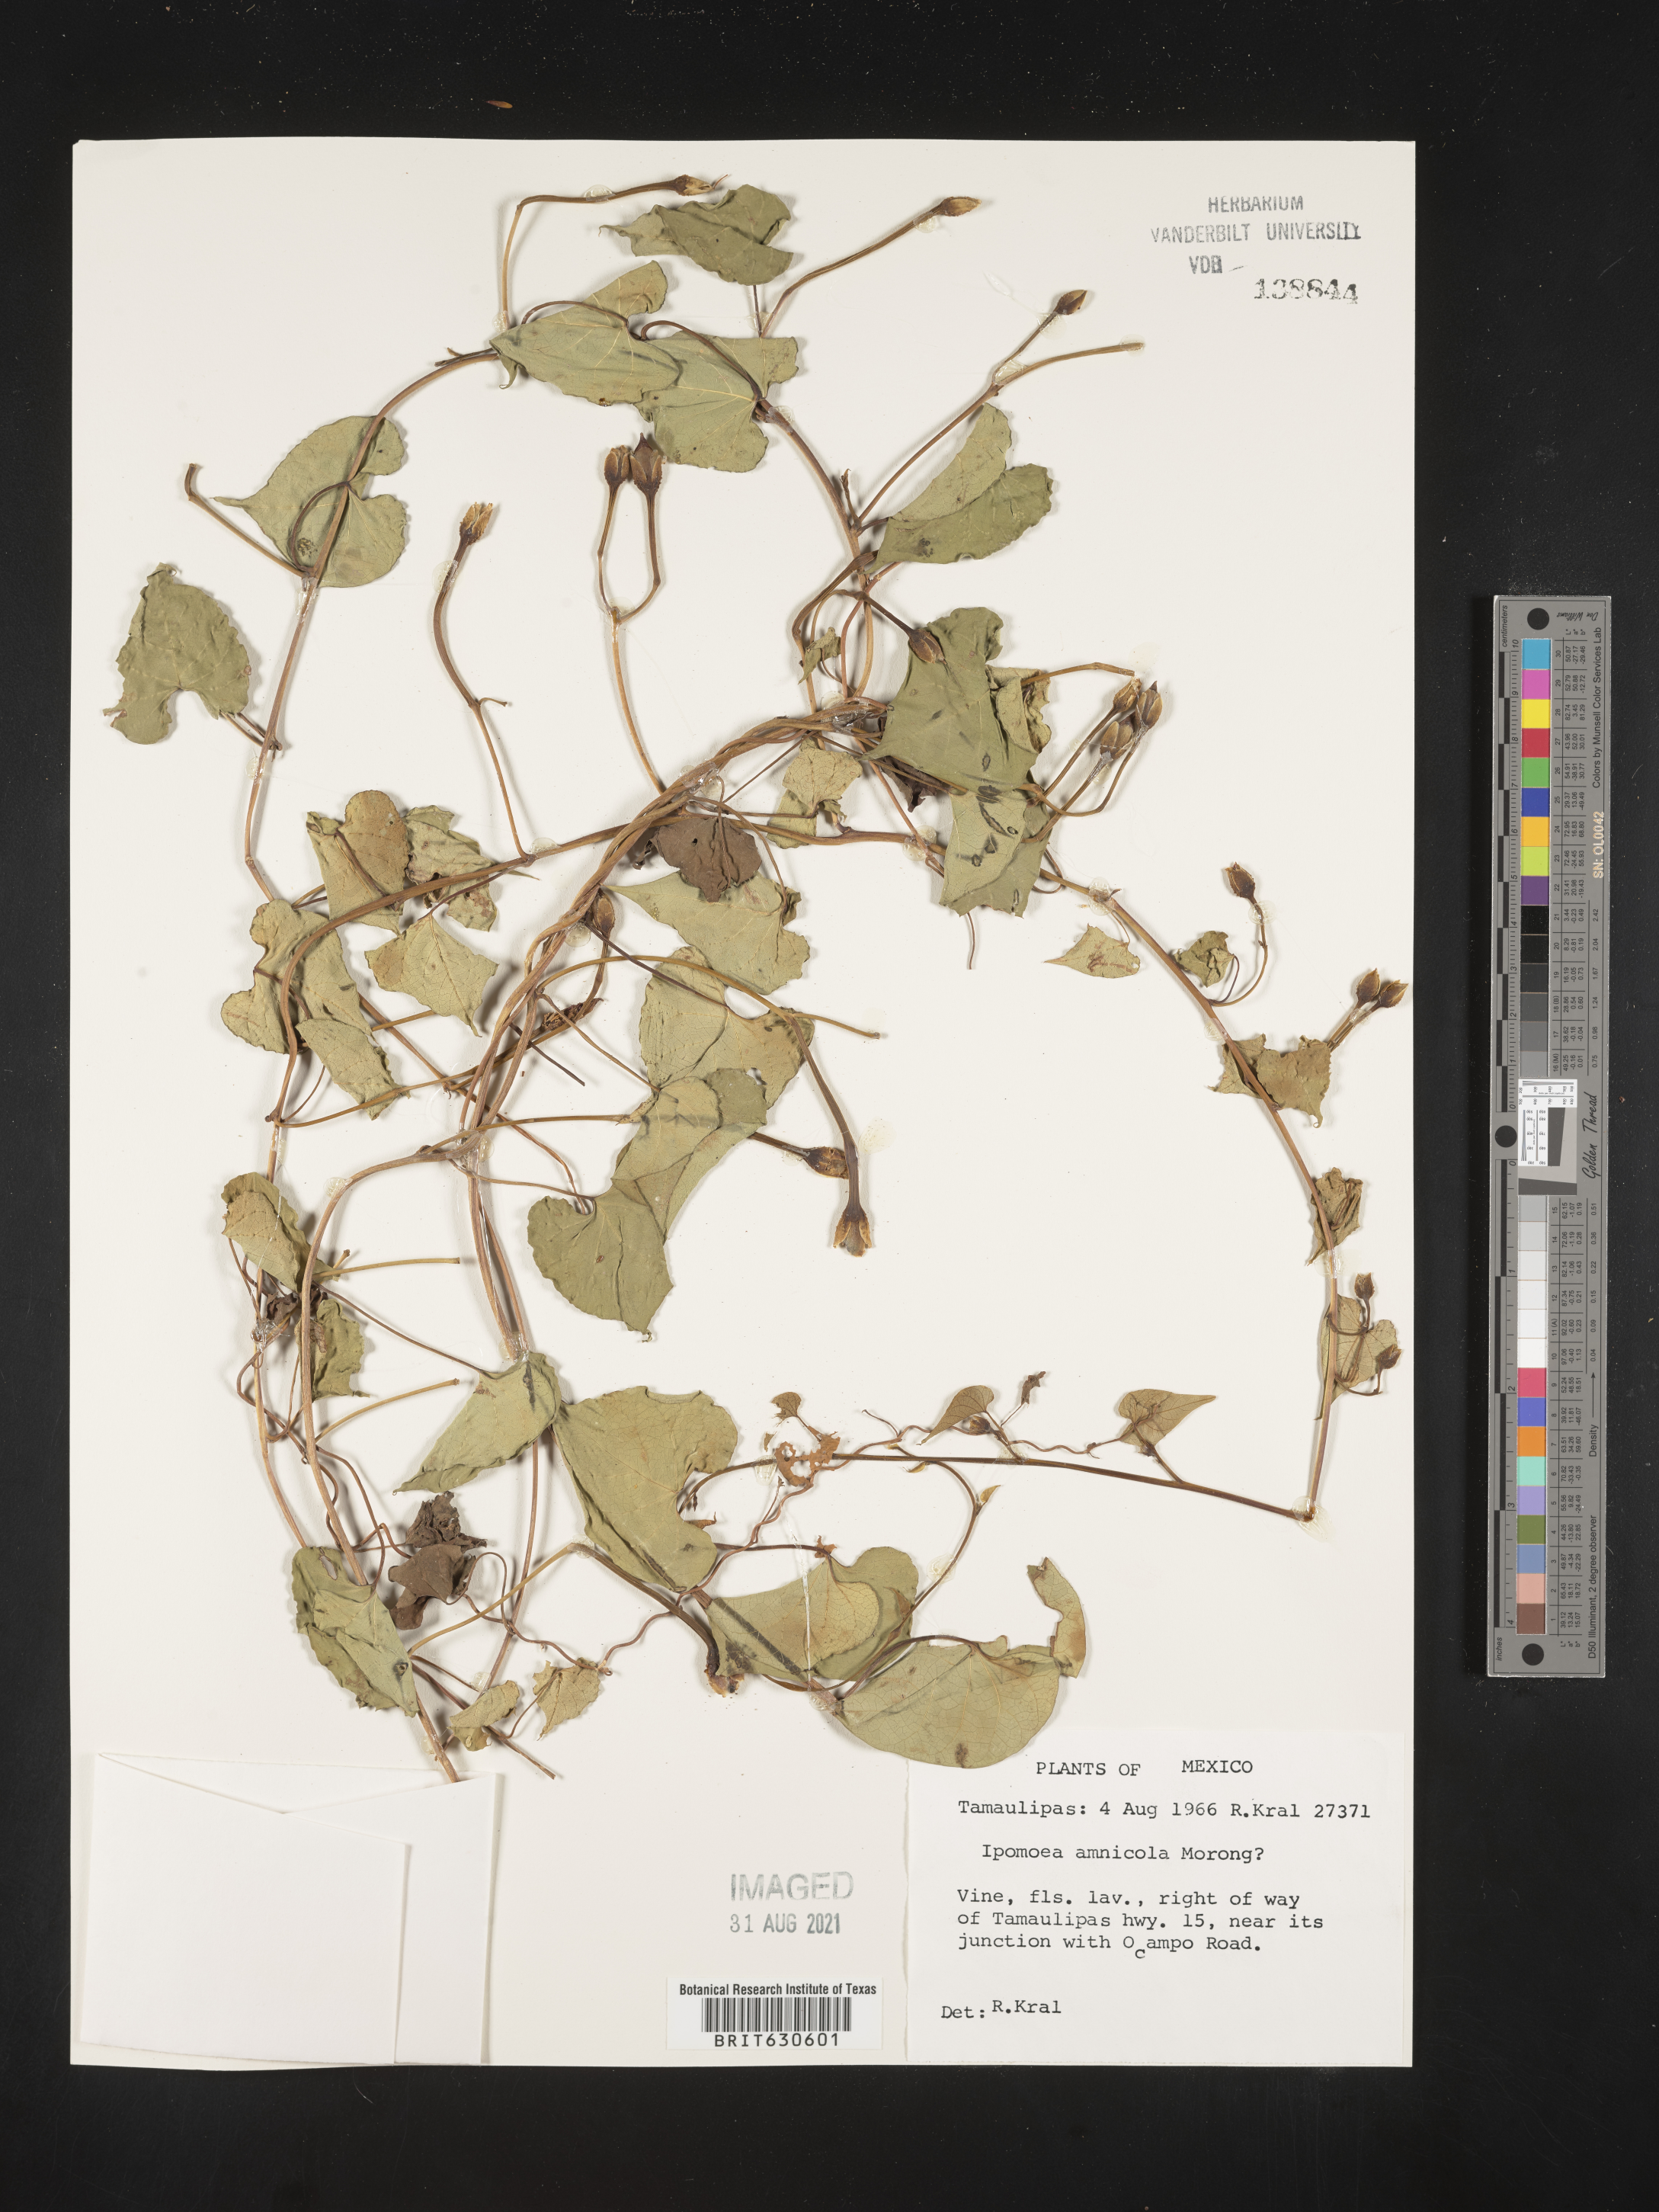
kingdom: Plantae
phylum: Tracheophyta
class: Magnoliopsida
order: Solanales
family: Convolvulaceae
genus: Ipomoea
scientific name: Ipomoea
